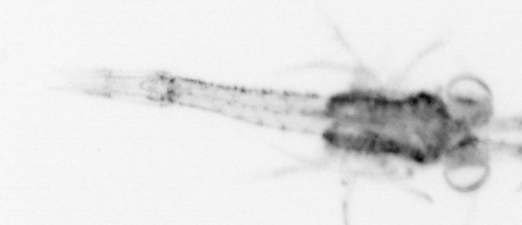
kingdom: Animalia
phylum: Arthropoda
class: Malacostraca
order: Decapoda
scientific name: Decapoda
